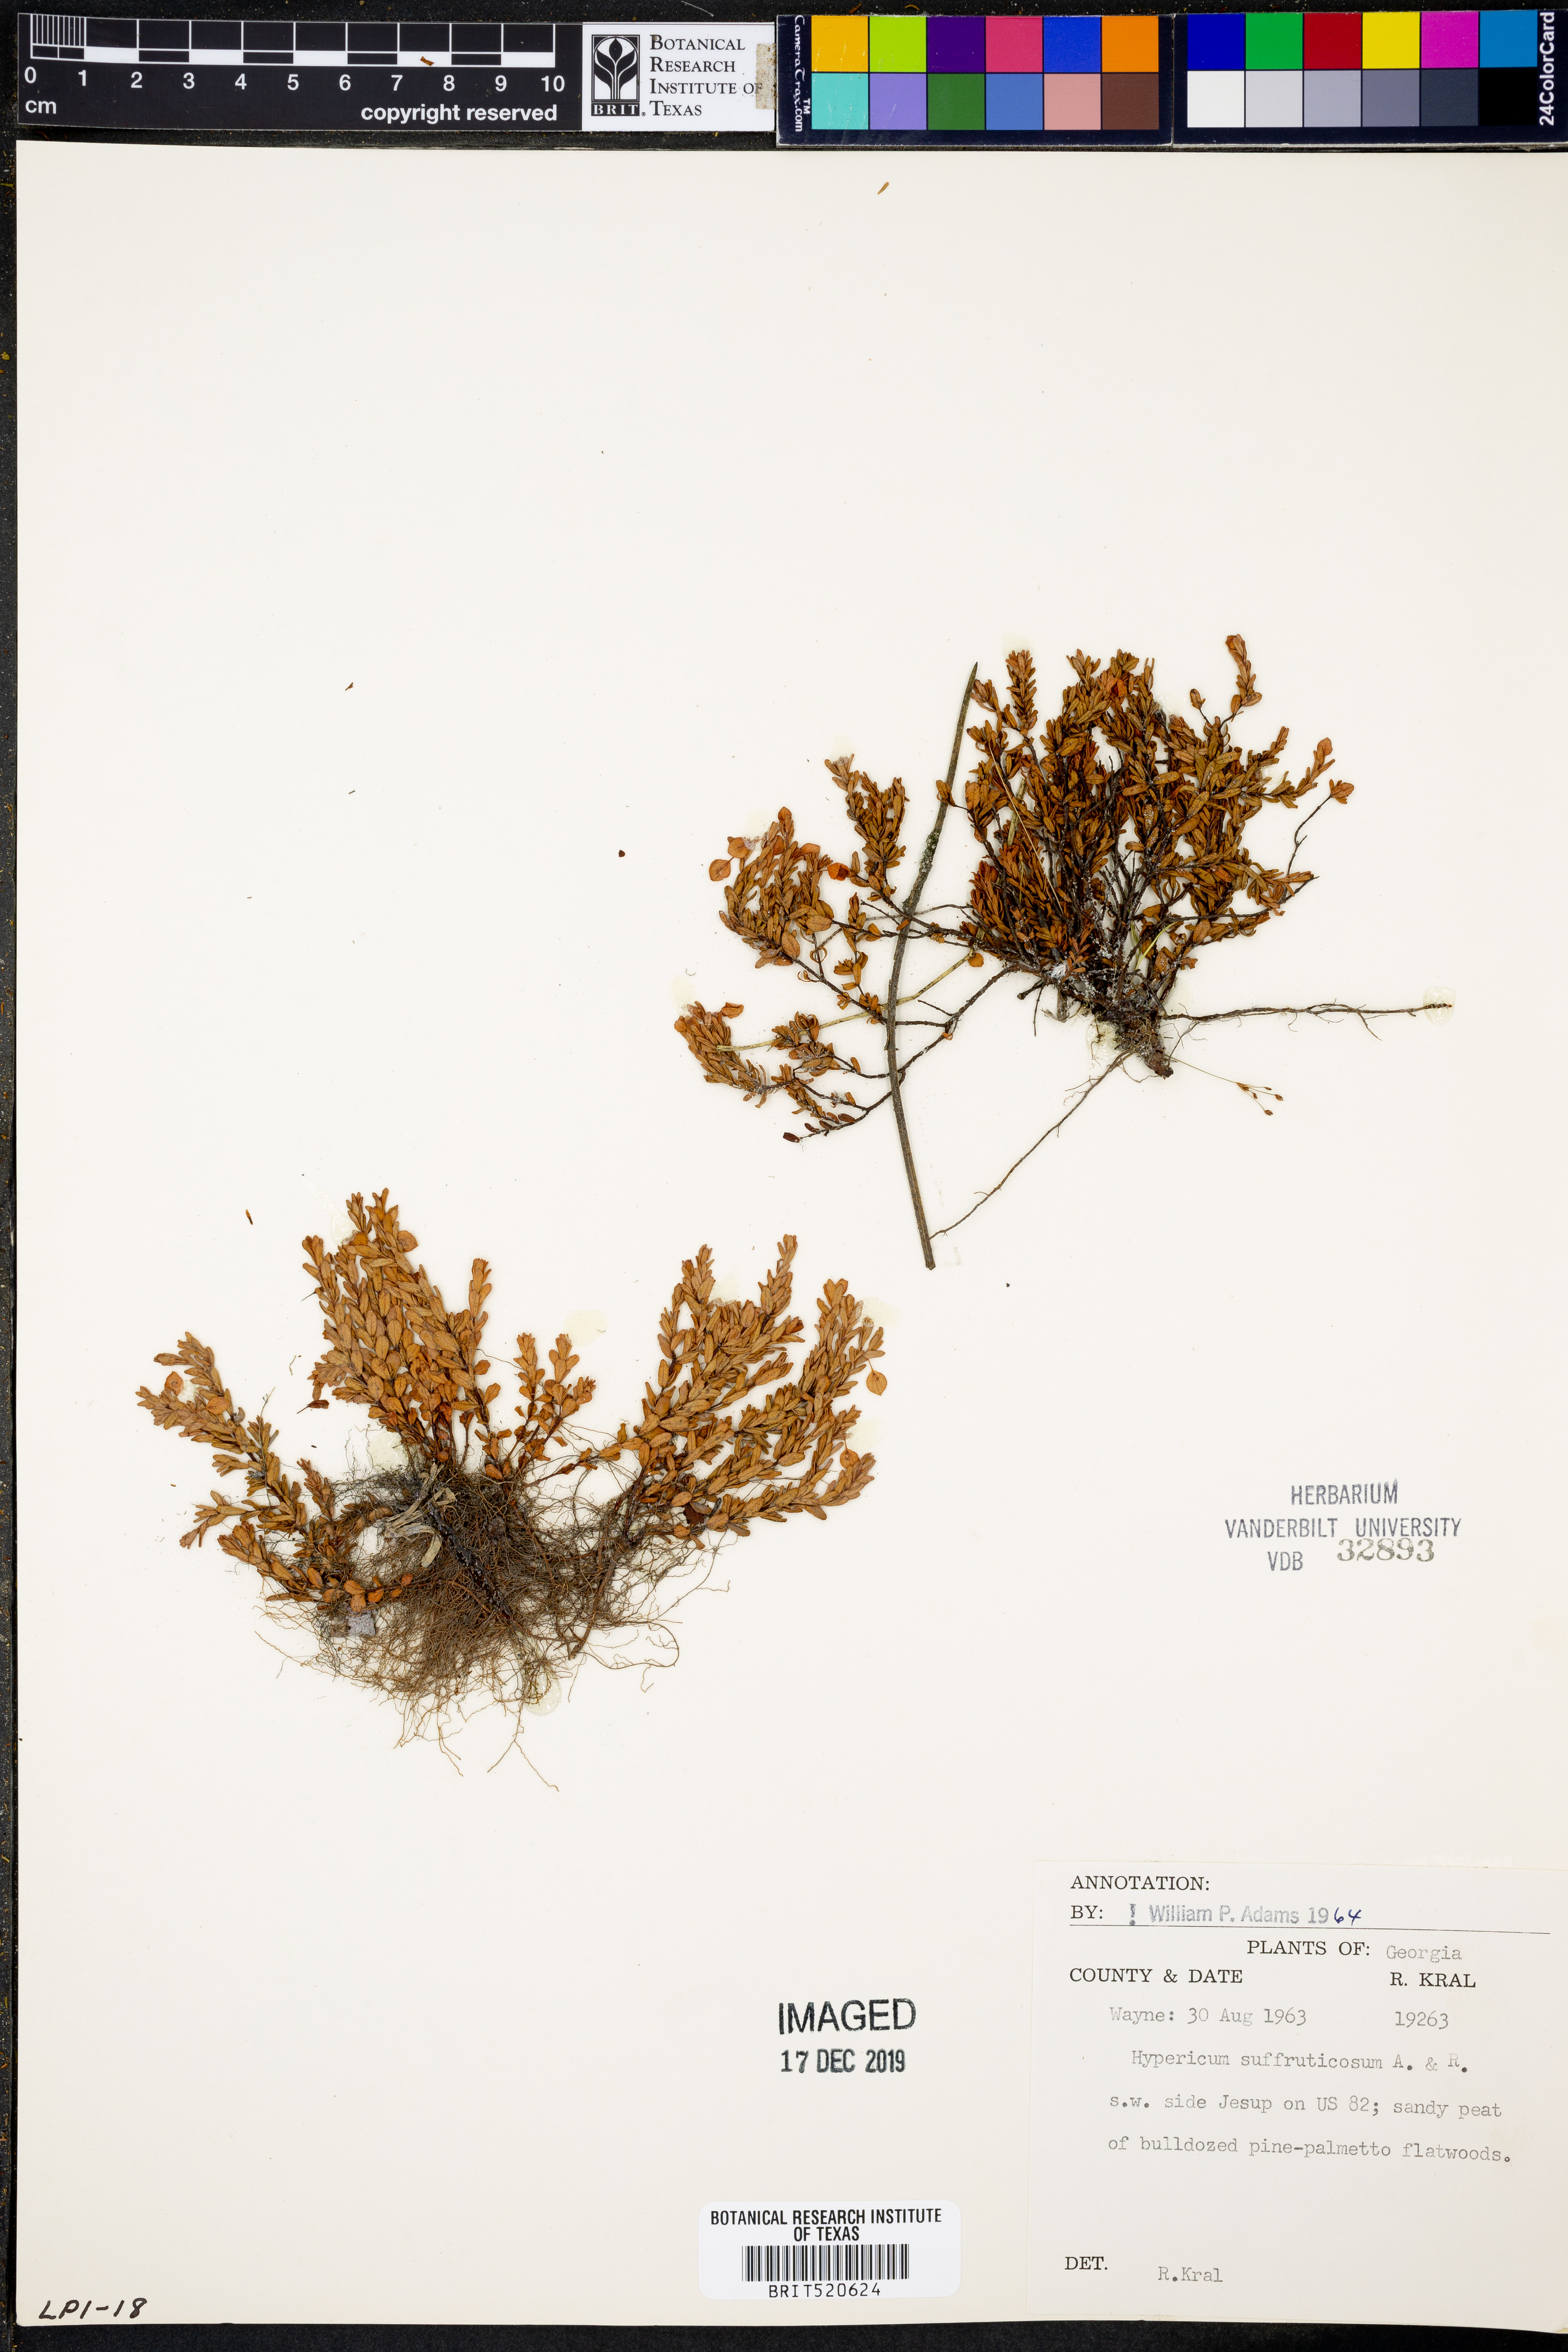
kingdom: Plantae
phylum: Tracheophyta
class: Magnoliopsida
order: Malpighiales
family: Hypericaceae
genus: Hypericum
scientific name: Hypericum suffruticosum
